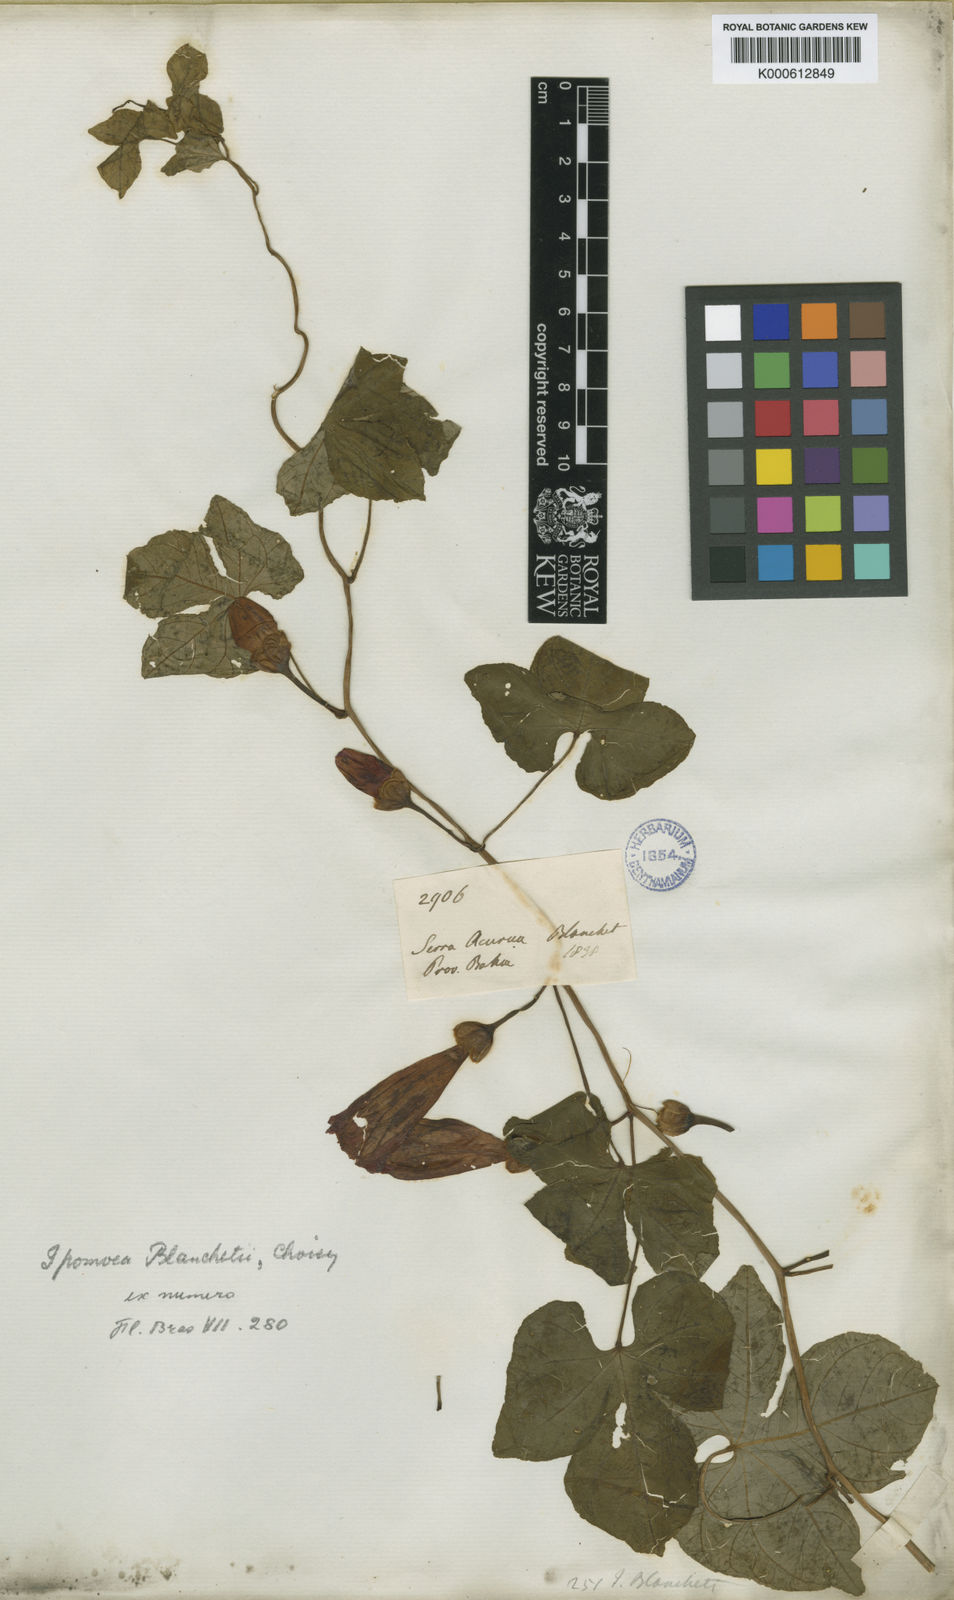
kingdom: Plantae
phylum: Tracheophyta
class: Magnoliopsida
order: Solanales
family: Convolvulaceae
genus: Ipomoea
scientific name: Ipomoea blanchetii
